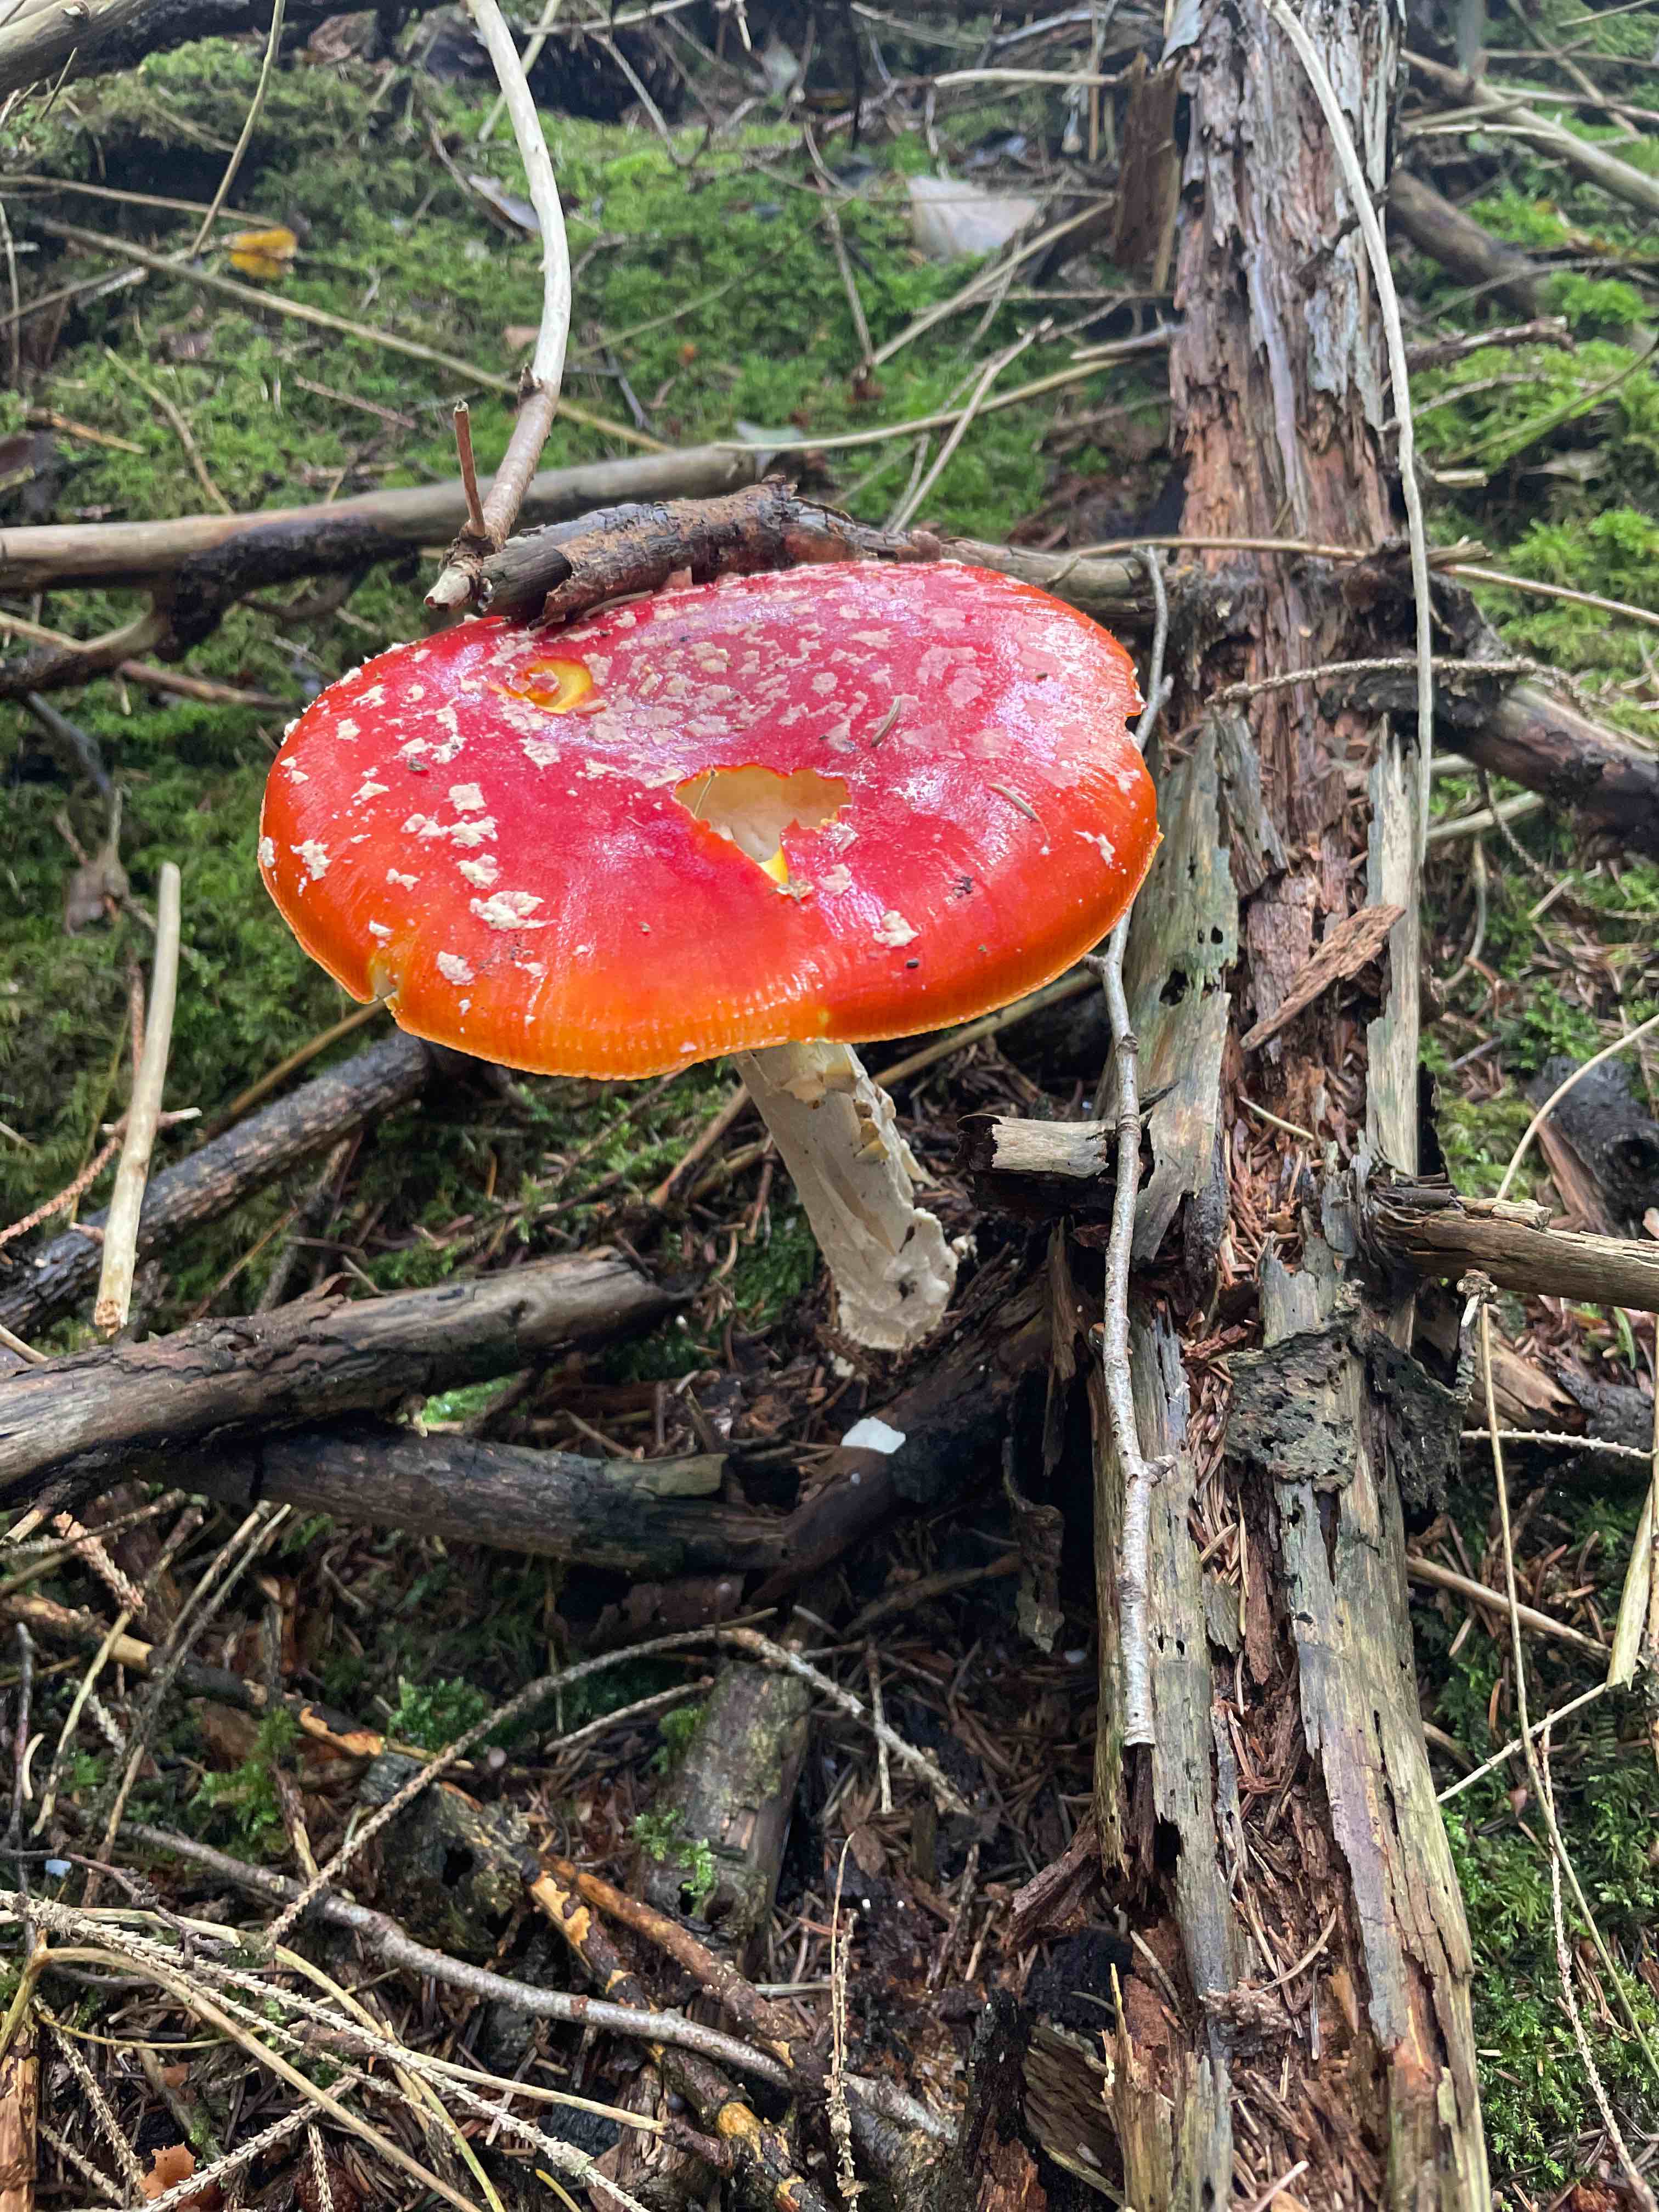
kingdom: Fungi
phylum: Basidiomycota
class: Agaricomycetes
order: Agaricales
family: Amanitaceae
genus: Amanita
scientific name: Amanita muscaria
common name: rød fluesvamp
